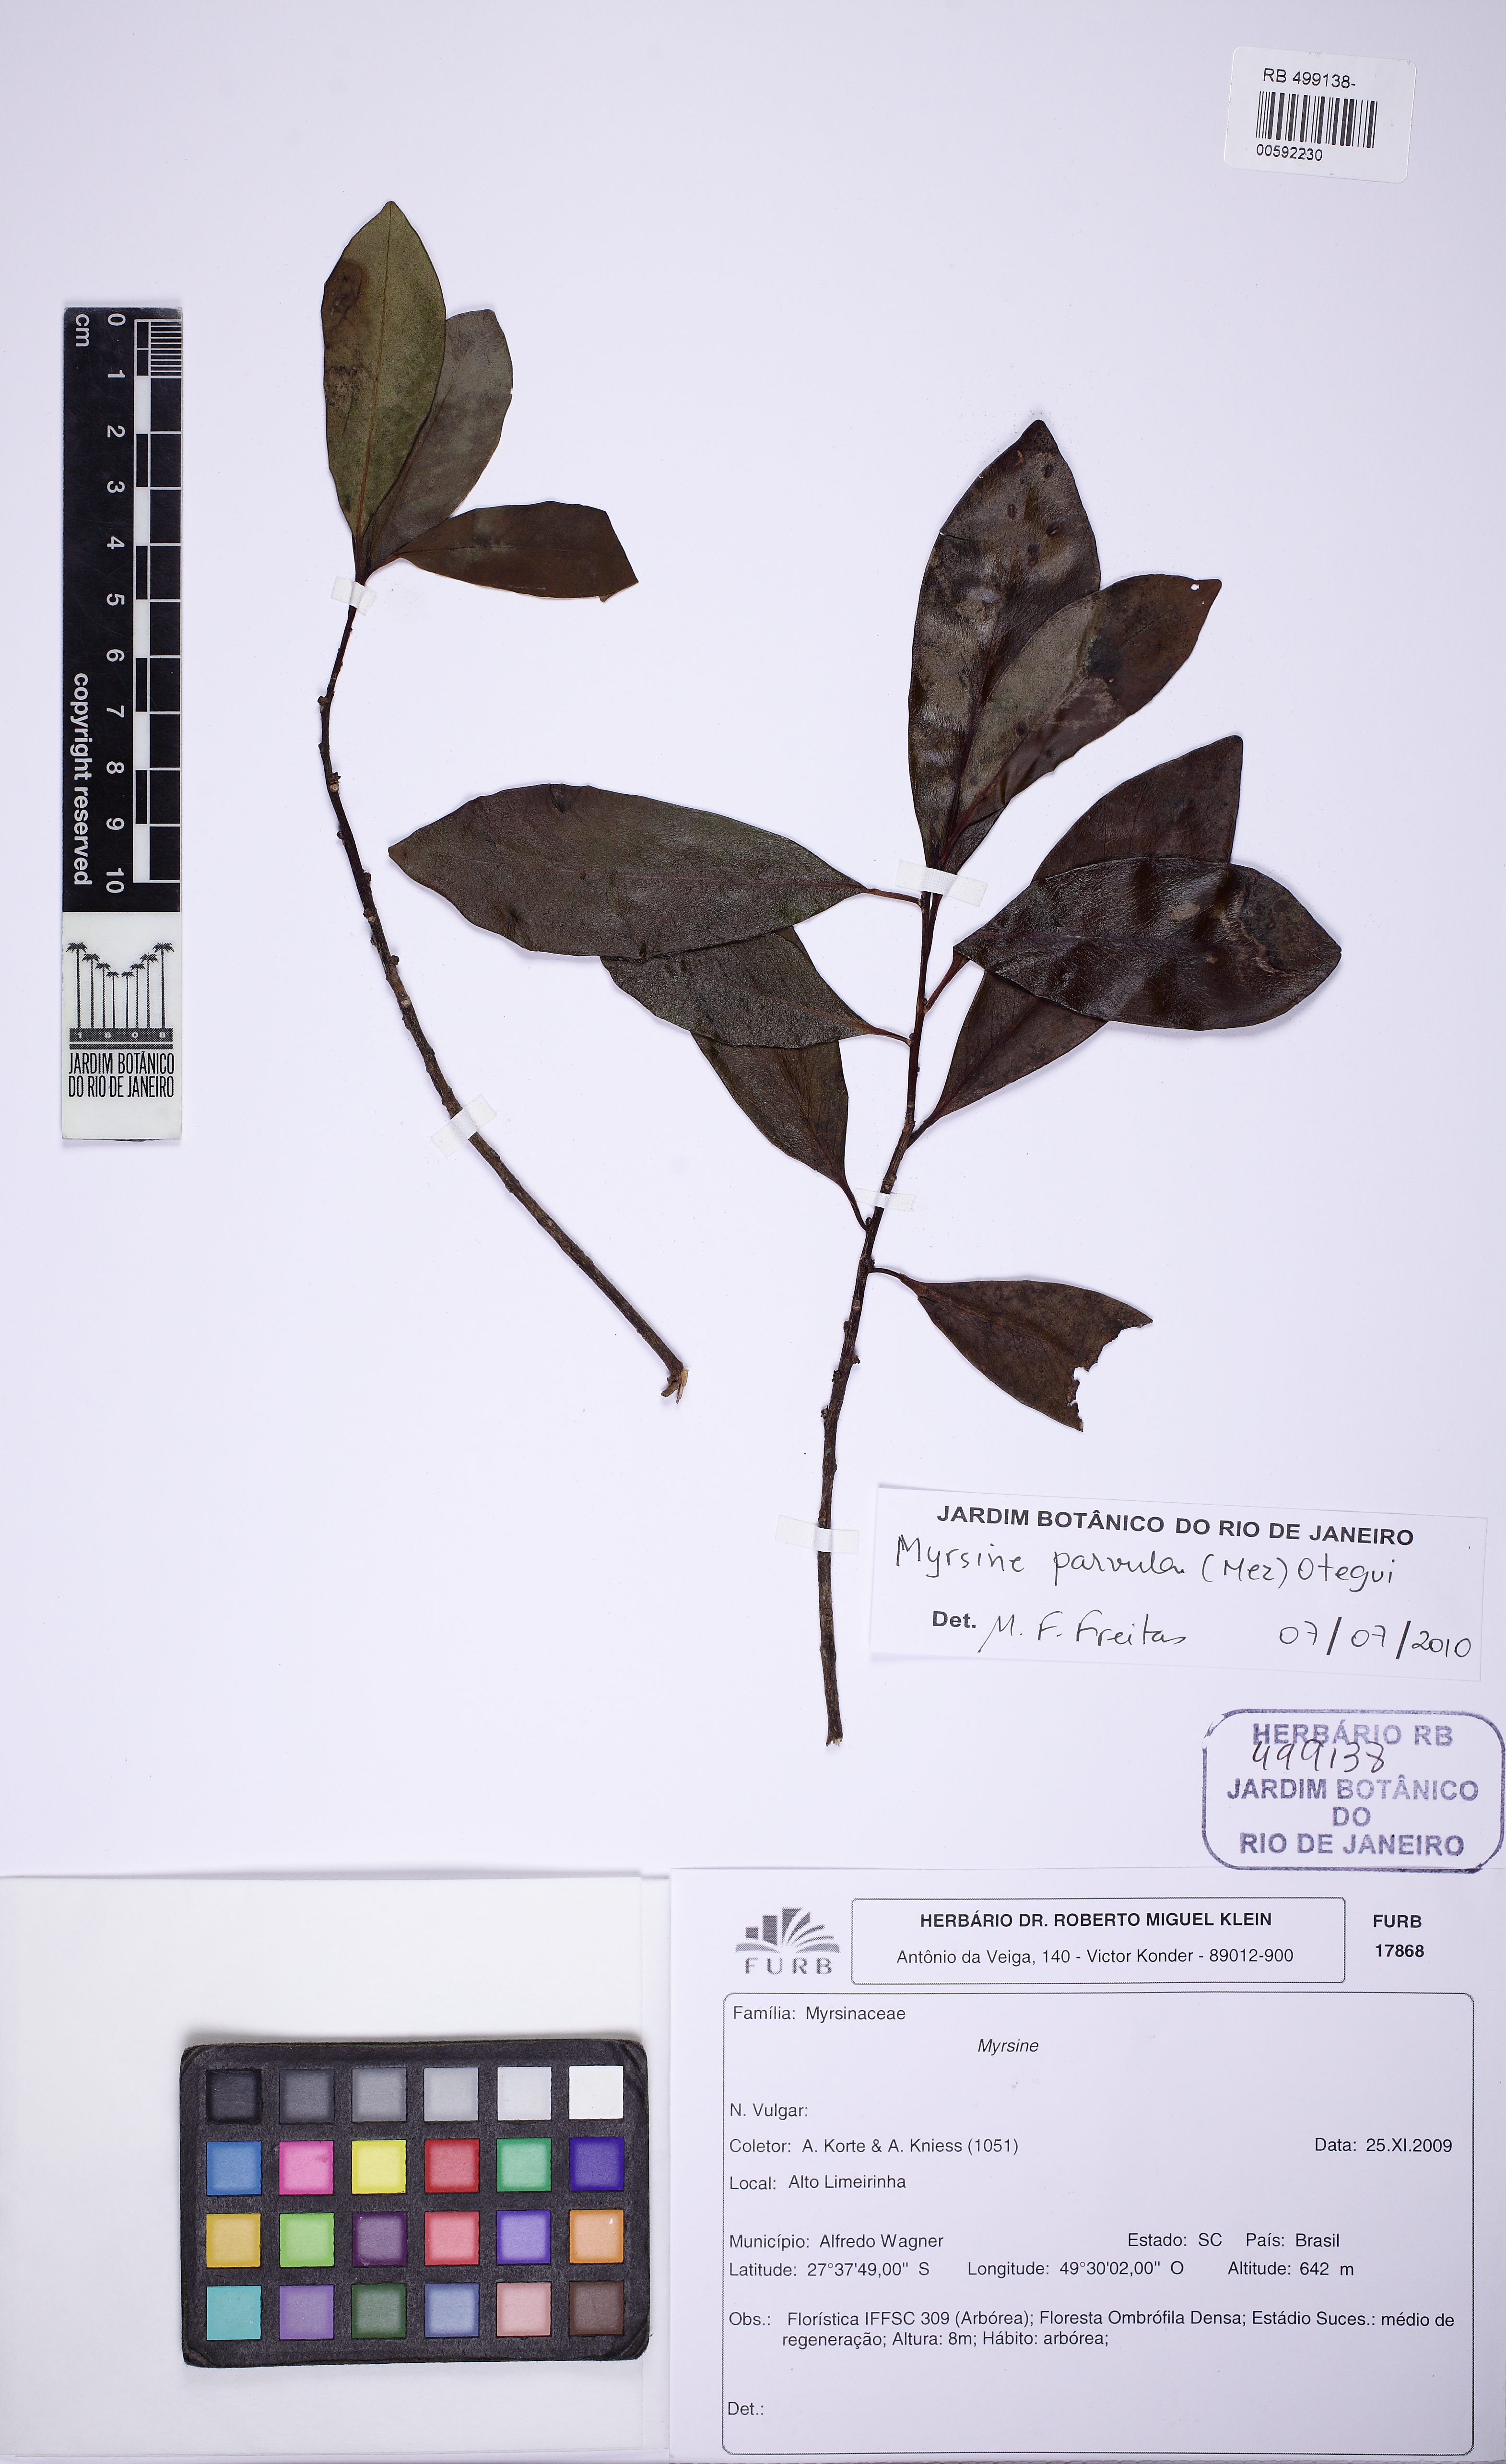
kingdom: Plantae
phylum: Tracheophyta
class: Magnoliopsida
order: Ericales
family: Primulaceae
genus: Myrsine
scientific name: Myrsine lorentziana
